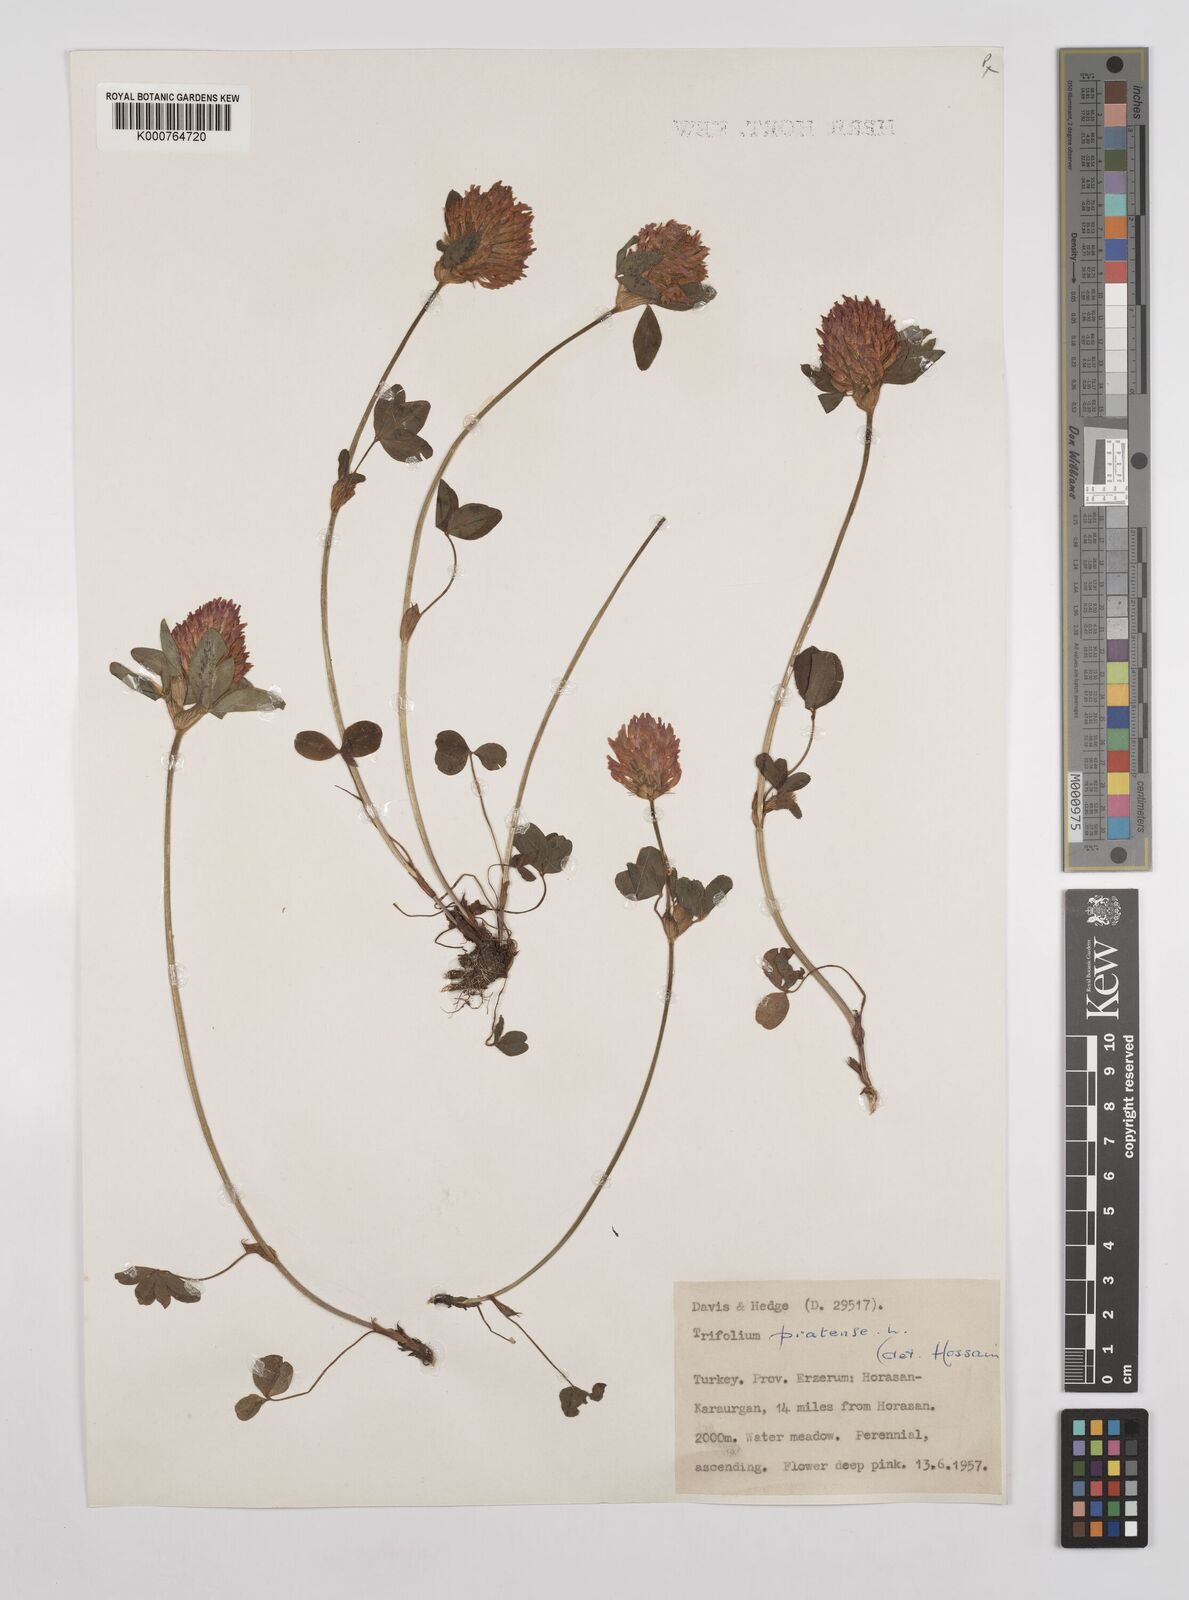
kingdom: Plantae
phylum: Tracheophyta
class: Magnoliopsida
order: Fabales
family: Fabaceae
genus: Trifolium
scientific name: Trifolium pratense
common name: Red clover
